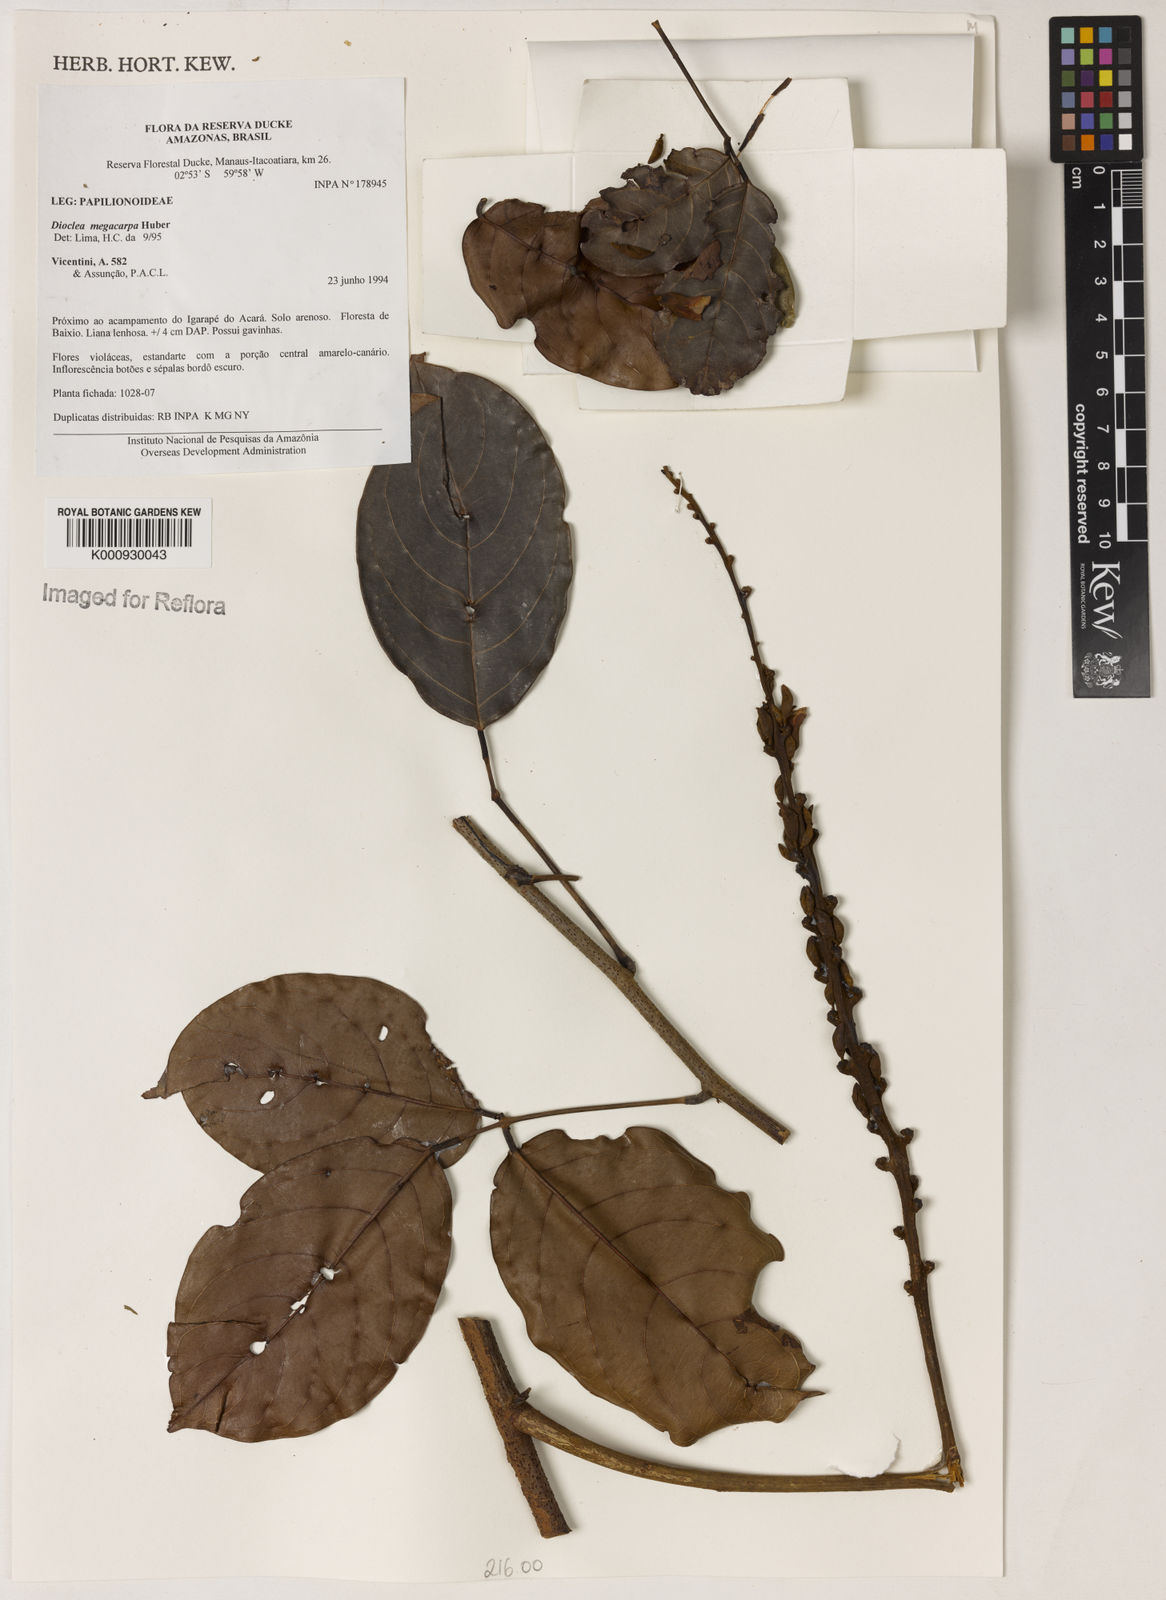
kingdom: Plantae
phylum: Tracheophyta
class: Magnoliopsida
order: Fabales
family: Fabaceae
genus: Macropsychanthus
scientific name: Macropsychanthus megacarpus
